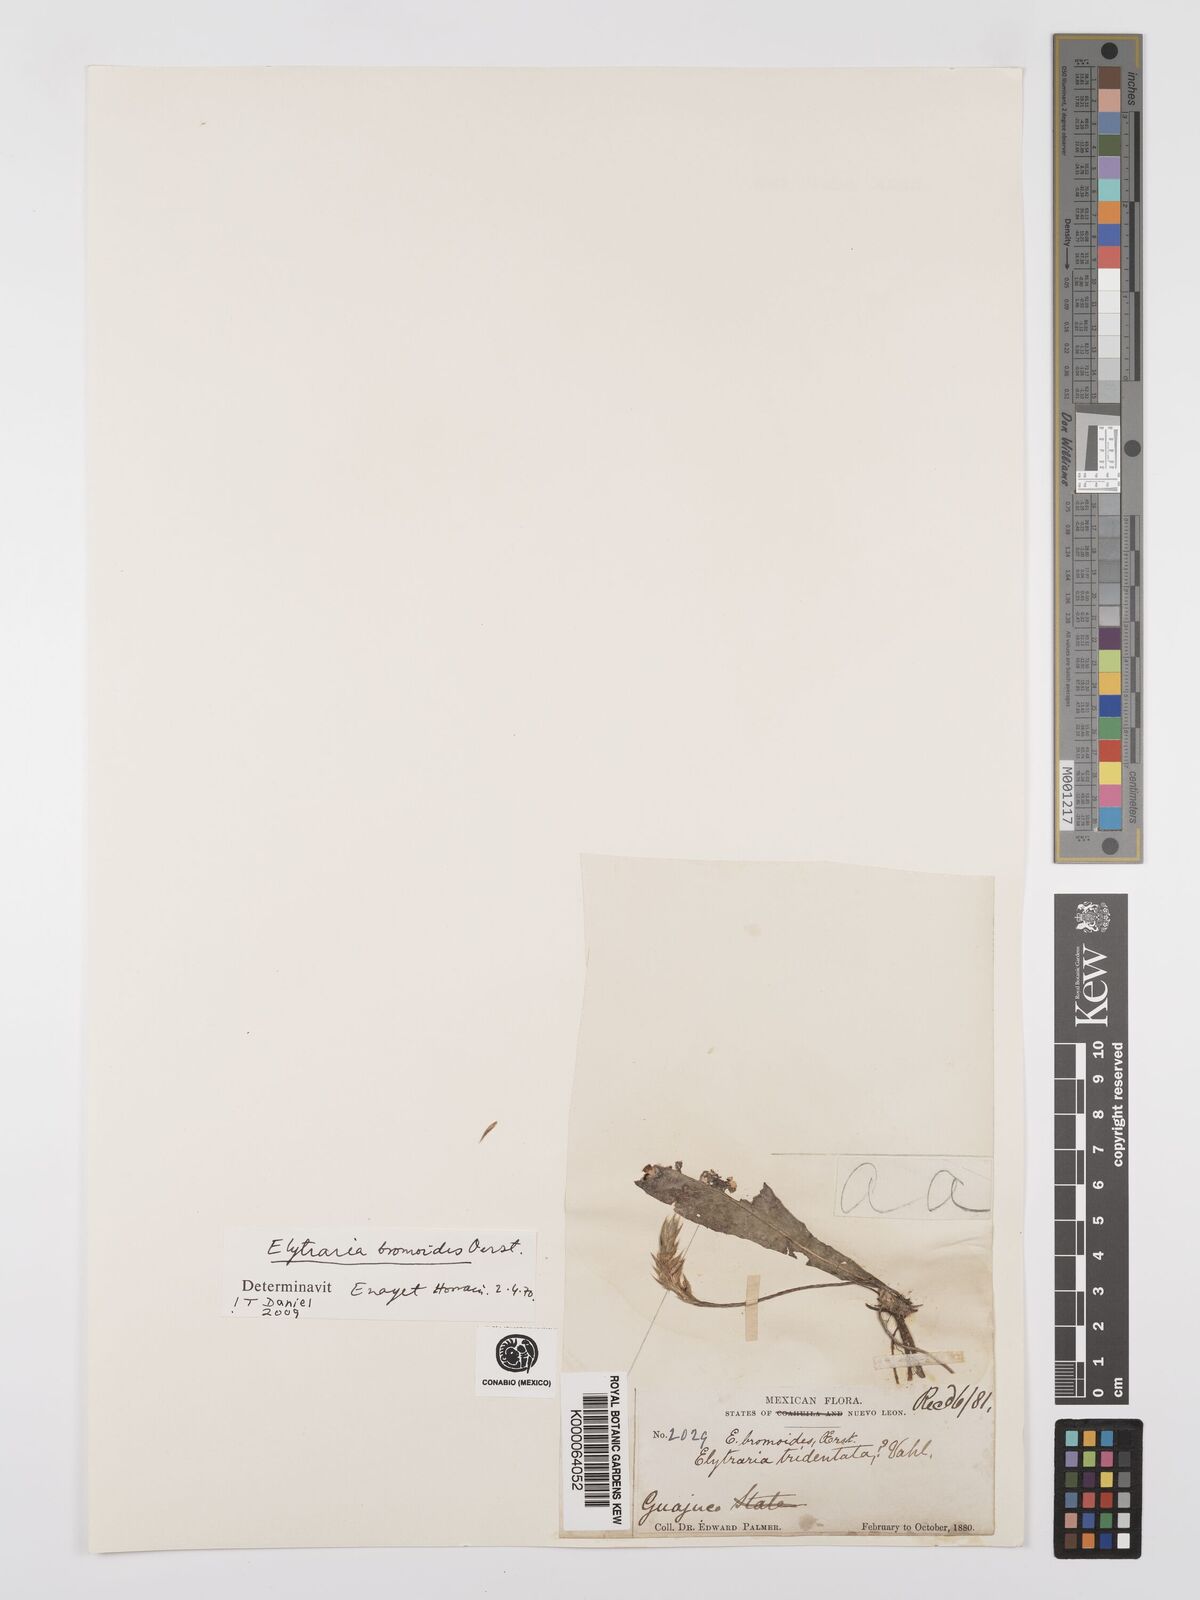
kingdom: Plantae
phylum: Tracheophyta
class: Magnoliopsida
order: Lamiales
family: Acanthaceae
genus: Elytraria
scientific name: Elytraria bromoides
